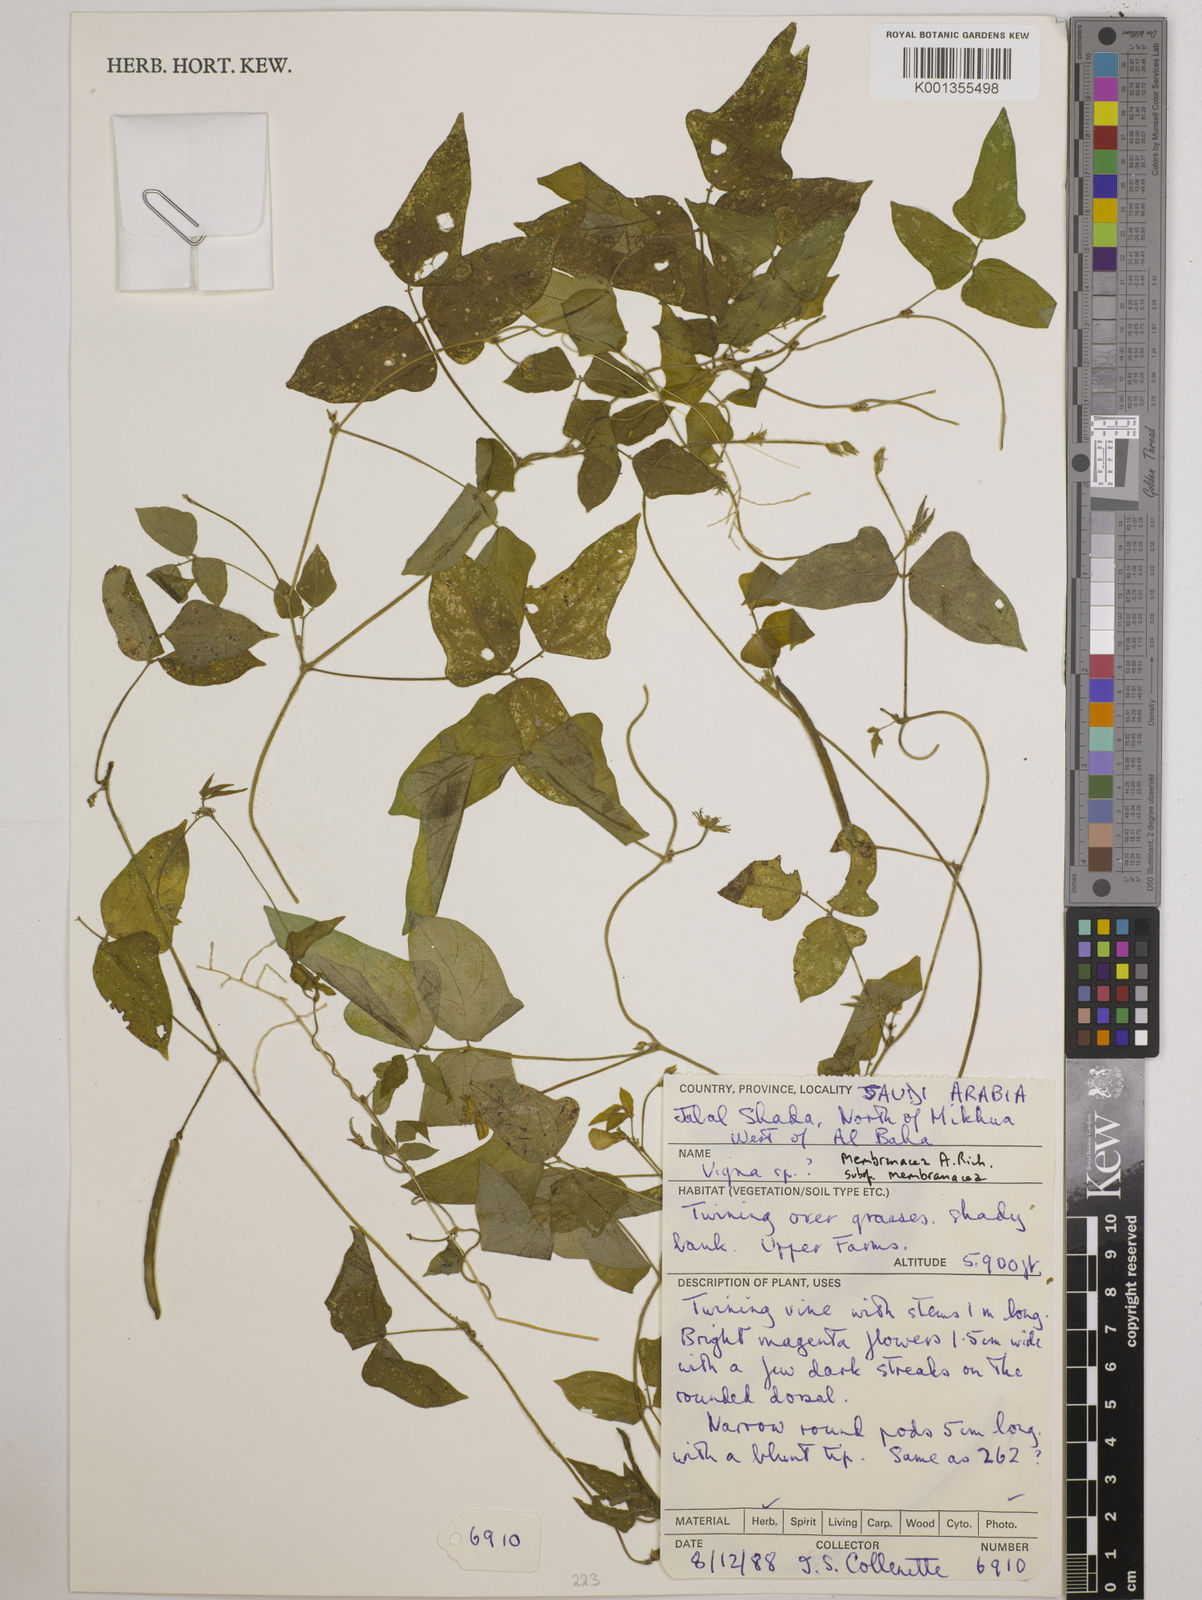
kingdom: Plantae
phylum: Tracheophyta
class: Magnoliopsida
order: Fabales
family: Fabaceae
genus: Vigna
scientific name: Vigna membranacea
